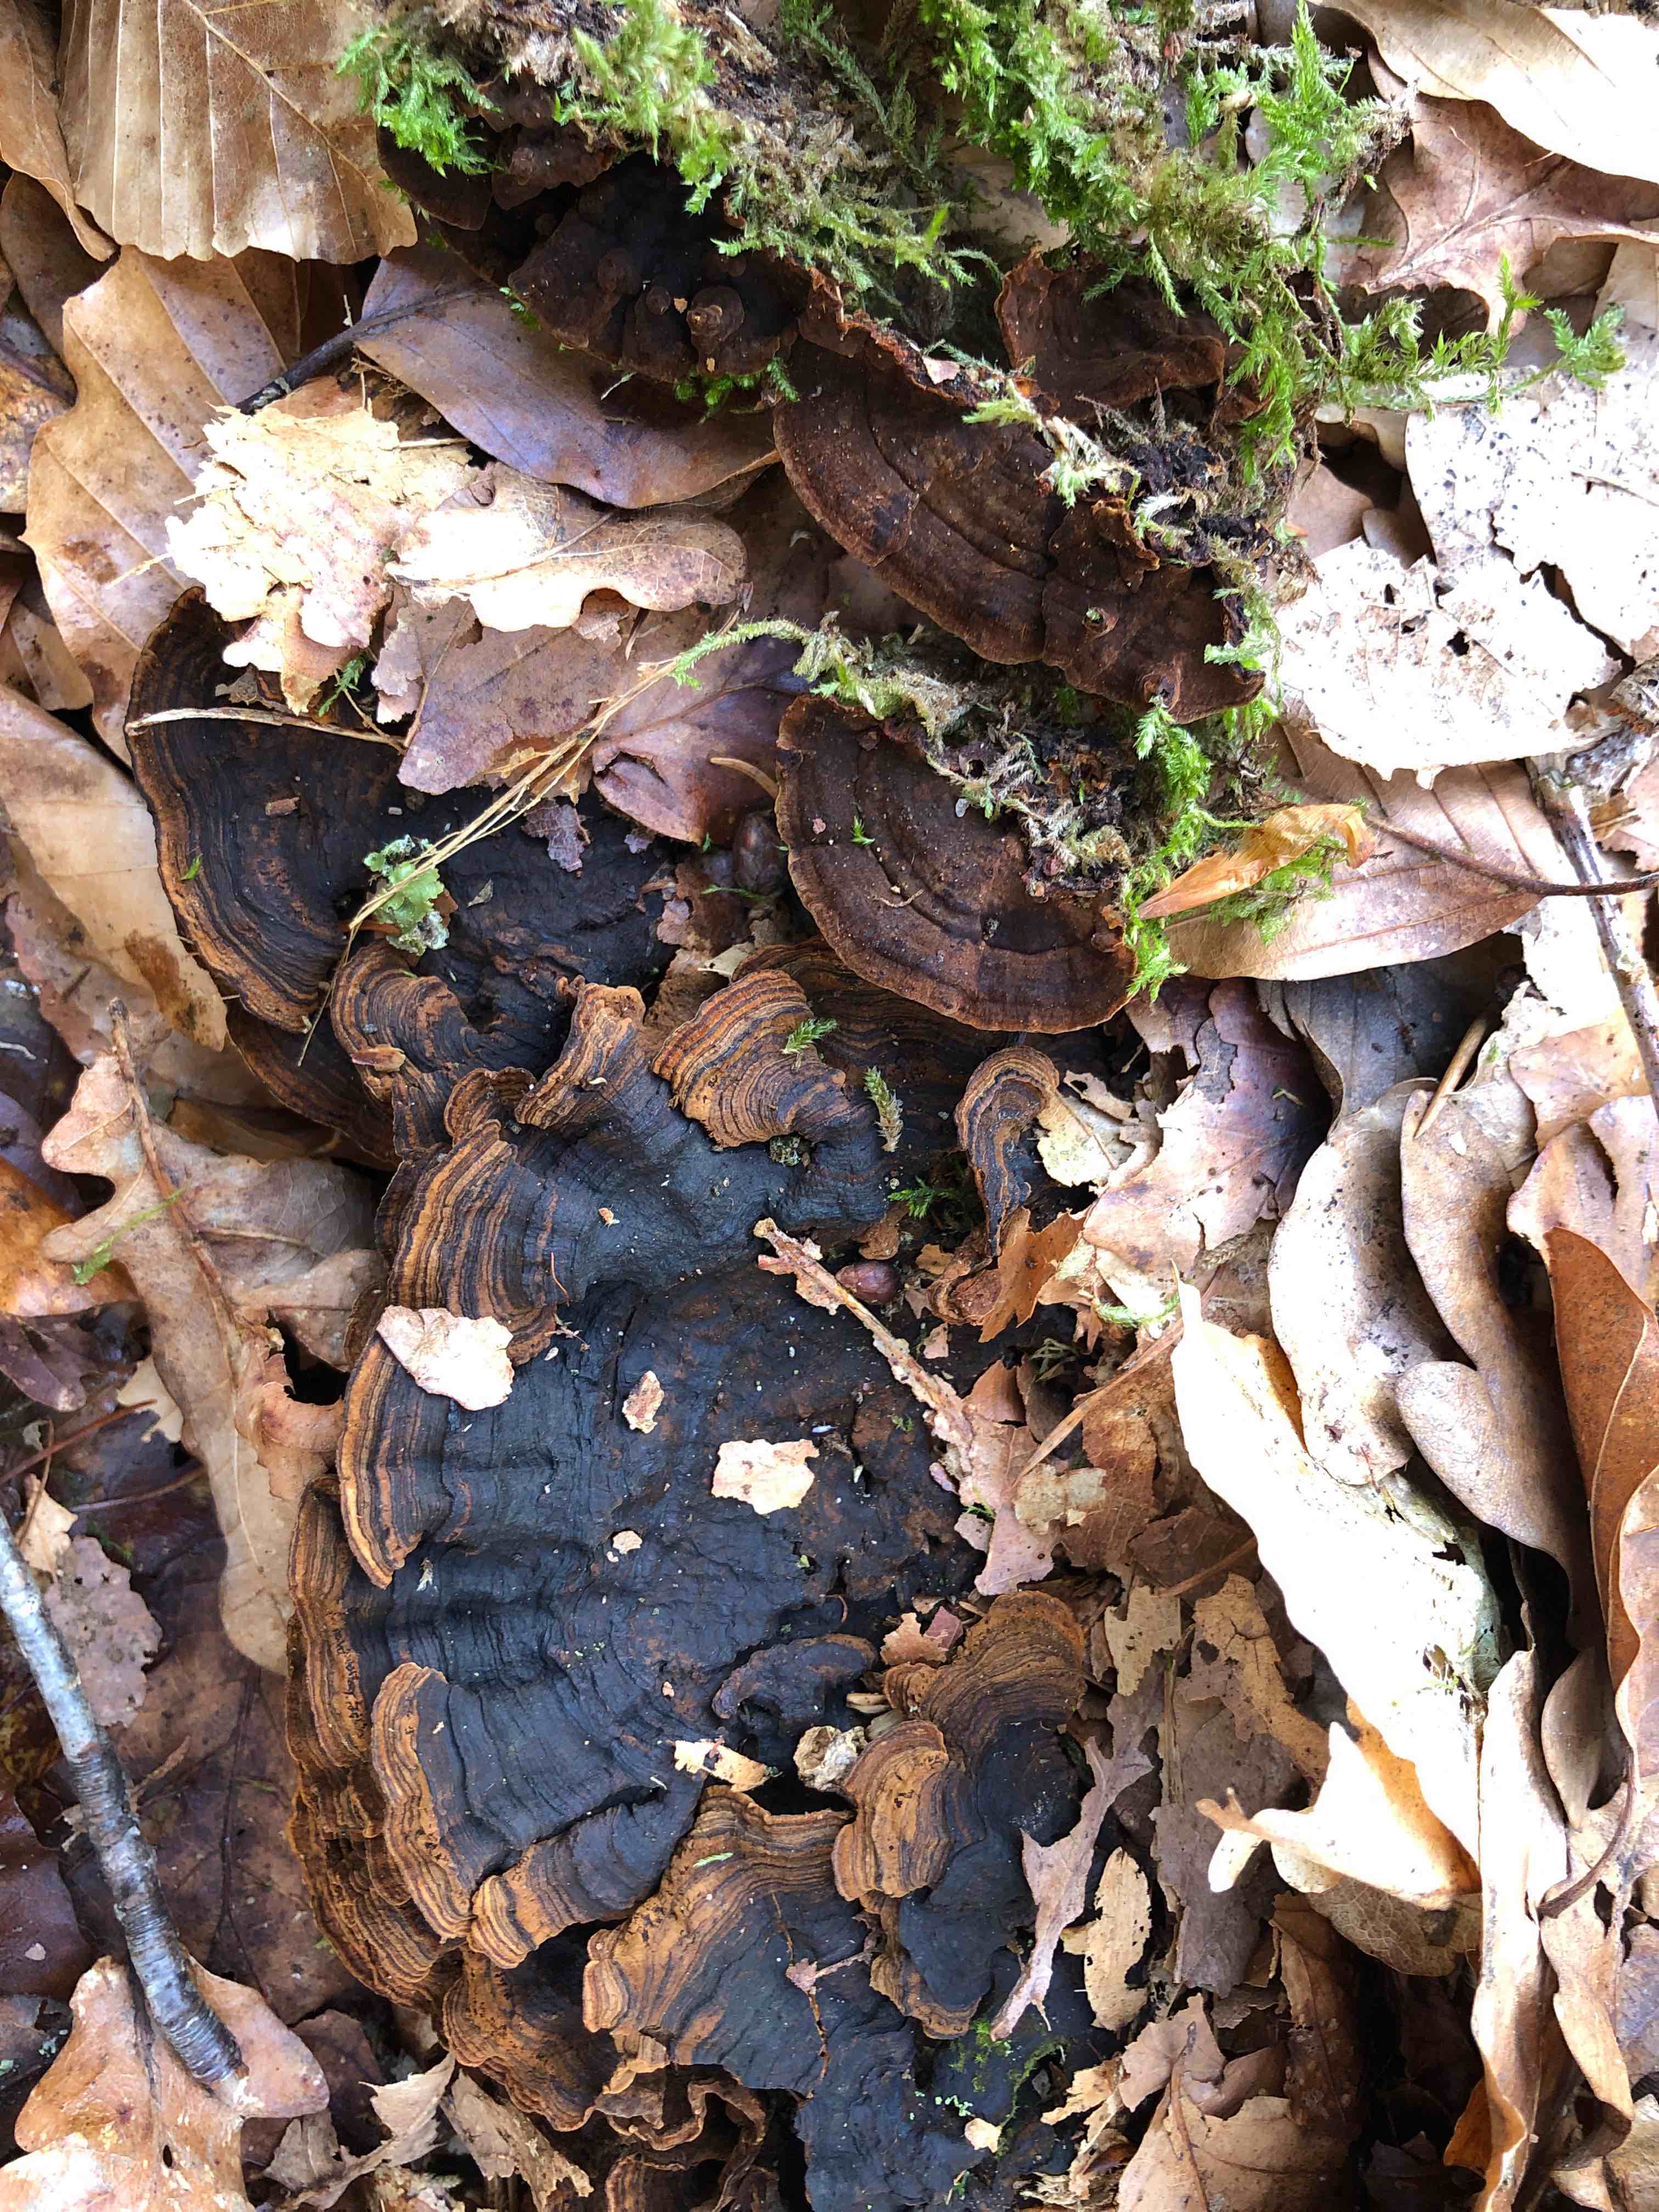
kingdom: Fungi
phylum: Basidiomycota
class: Agaricomycetes
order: Hymenochaetales
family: Hymenochaetaceae
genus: Hymenochaete
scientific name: Hymenochaete rubiginosa
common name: stiv ruslædersvamp
